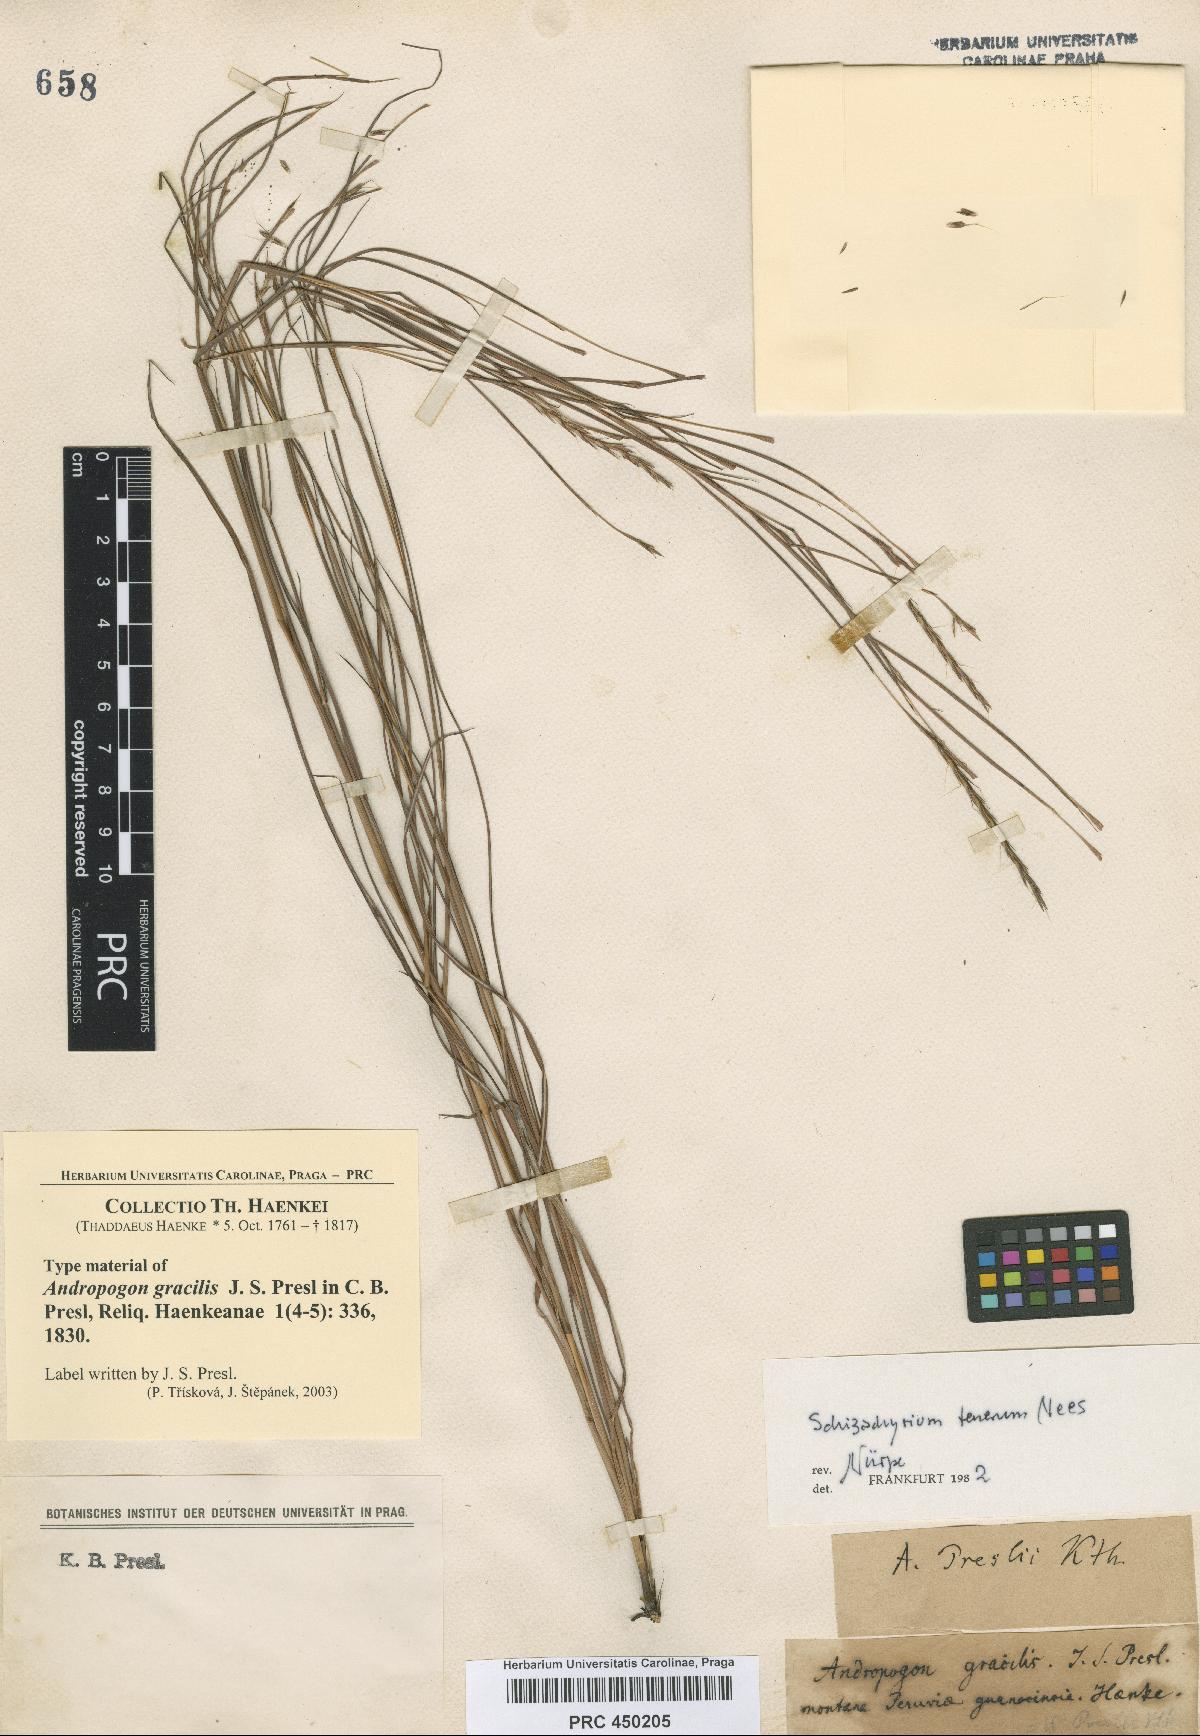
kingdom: Plantae
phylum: Tracheophyta
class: Liliopsida
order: Poales
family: Poaceae
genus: Andropogon
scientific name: Andropogon tener
